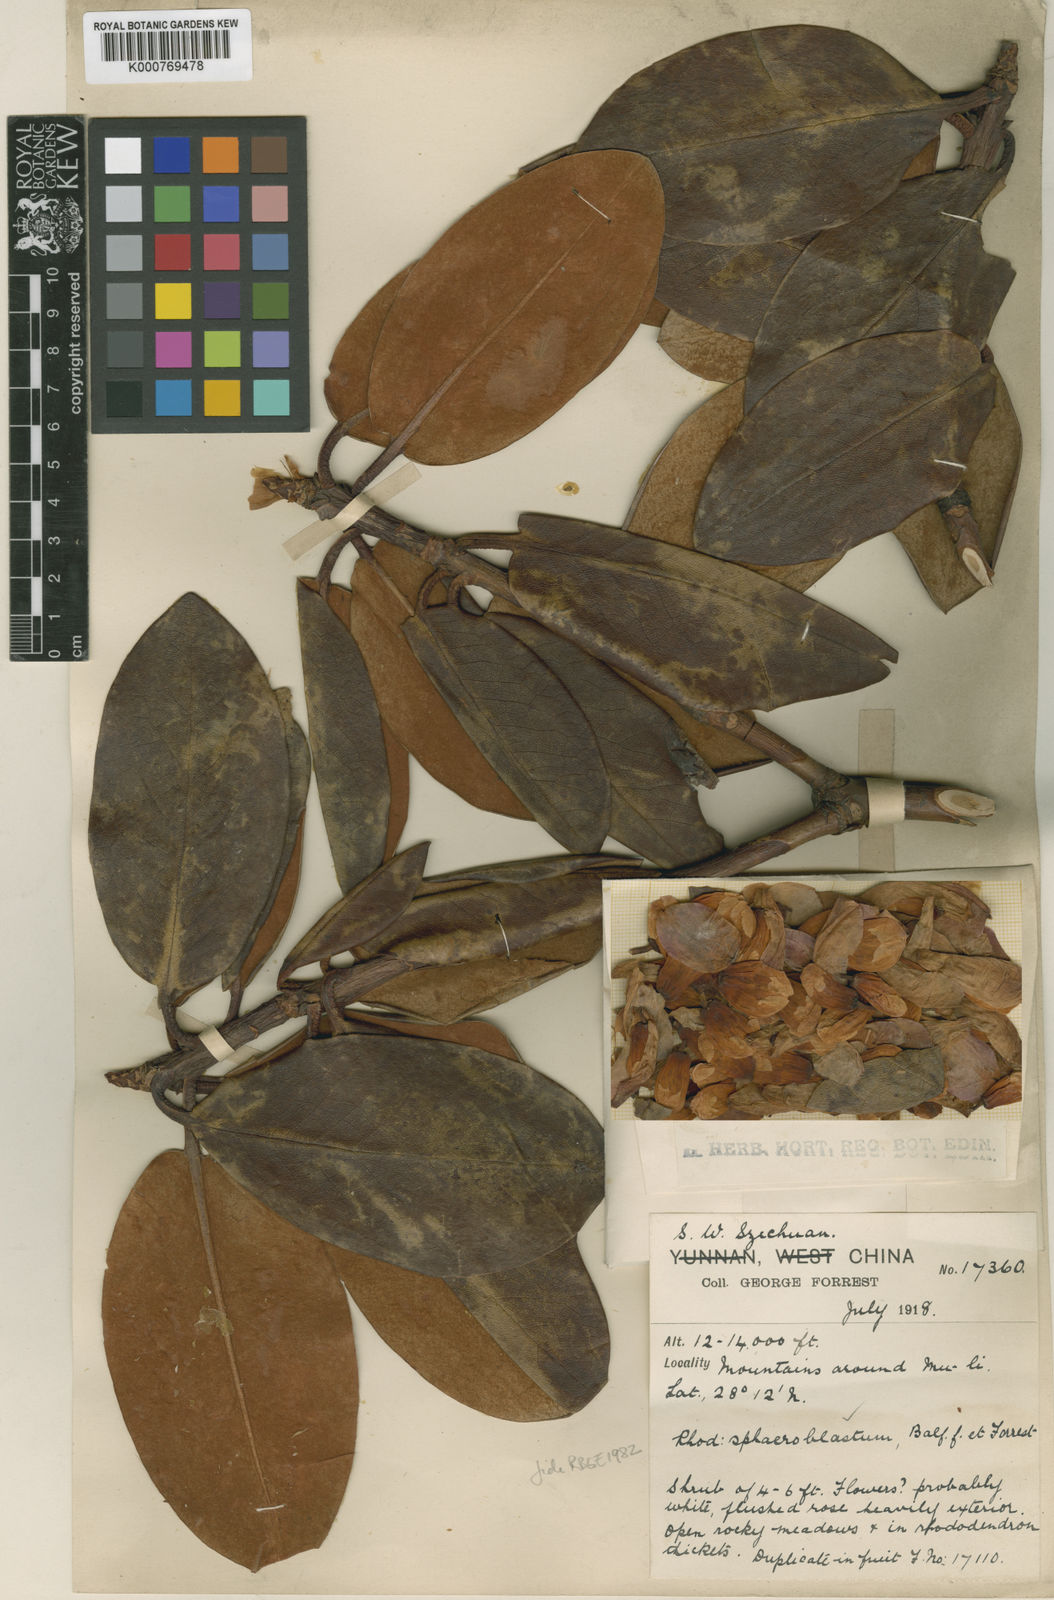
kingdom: Plantae
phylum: Tracheophyta
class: Magnoliopsida
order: Ericales
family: Ericaceae
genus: Rhododendron
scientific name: Rhododendron sphaeroblastum
